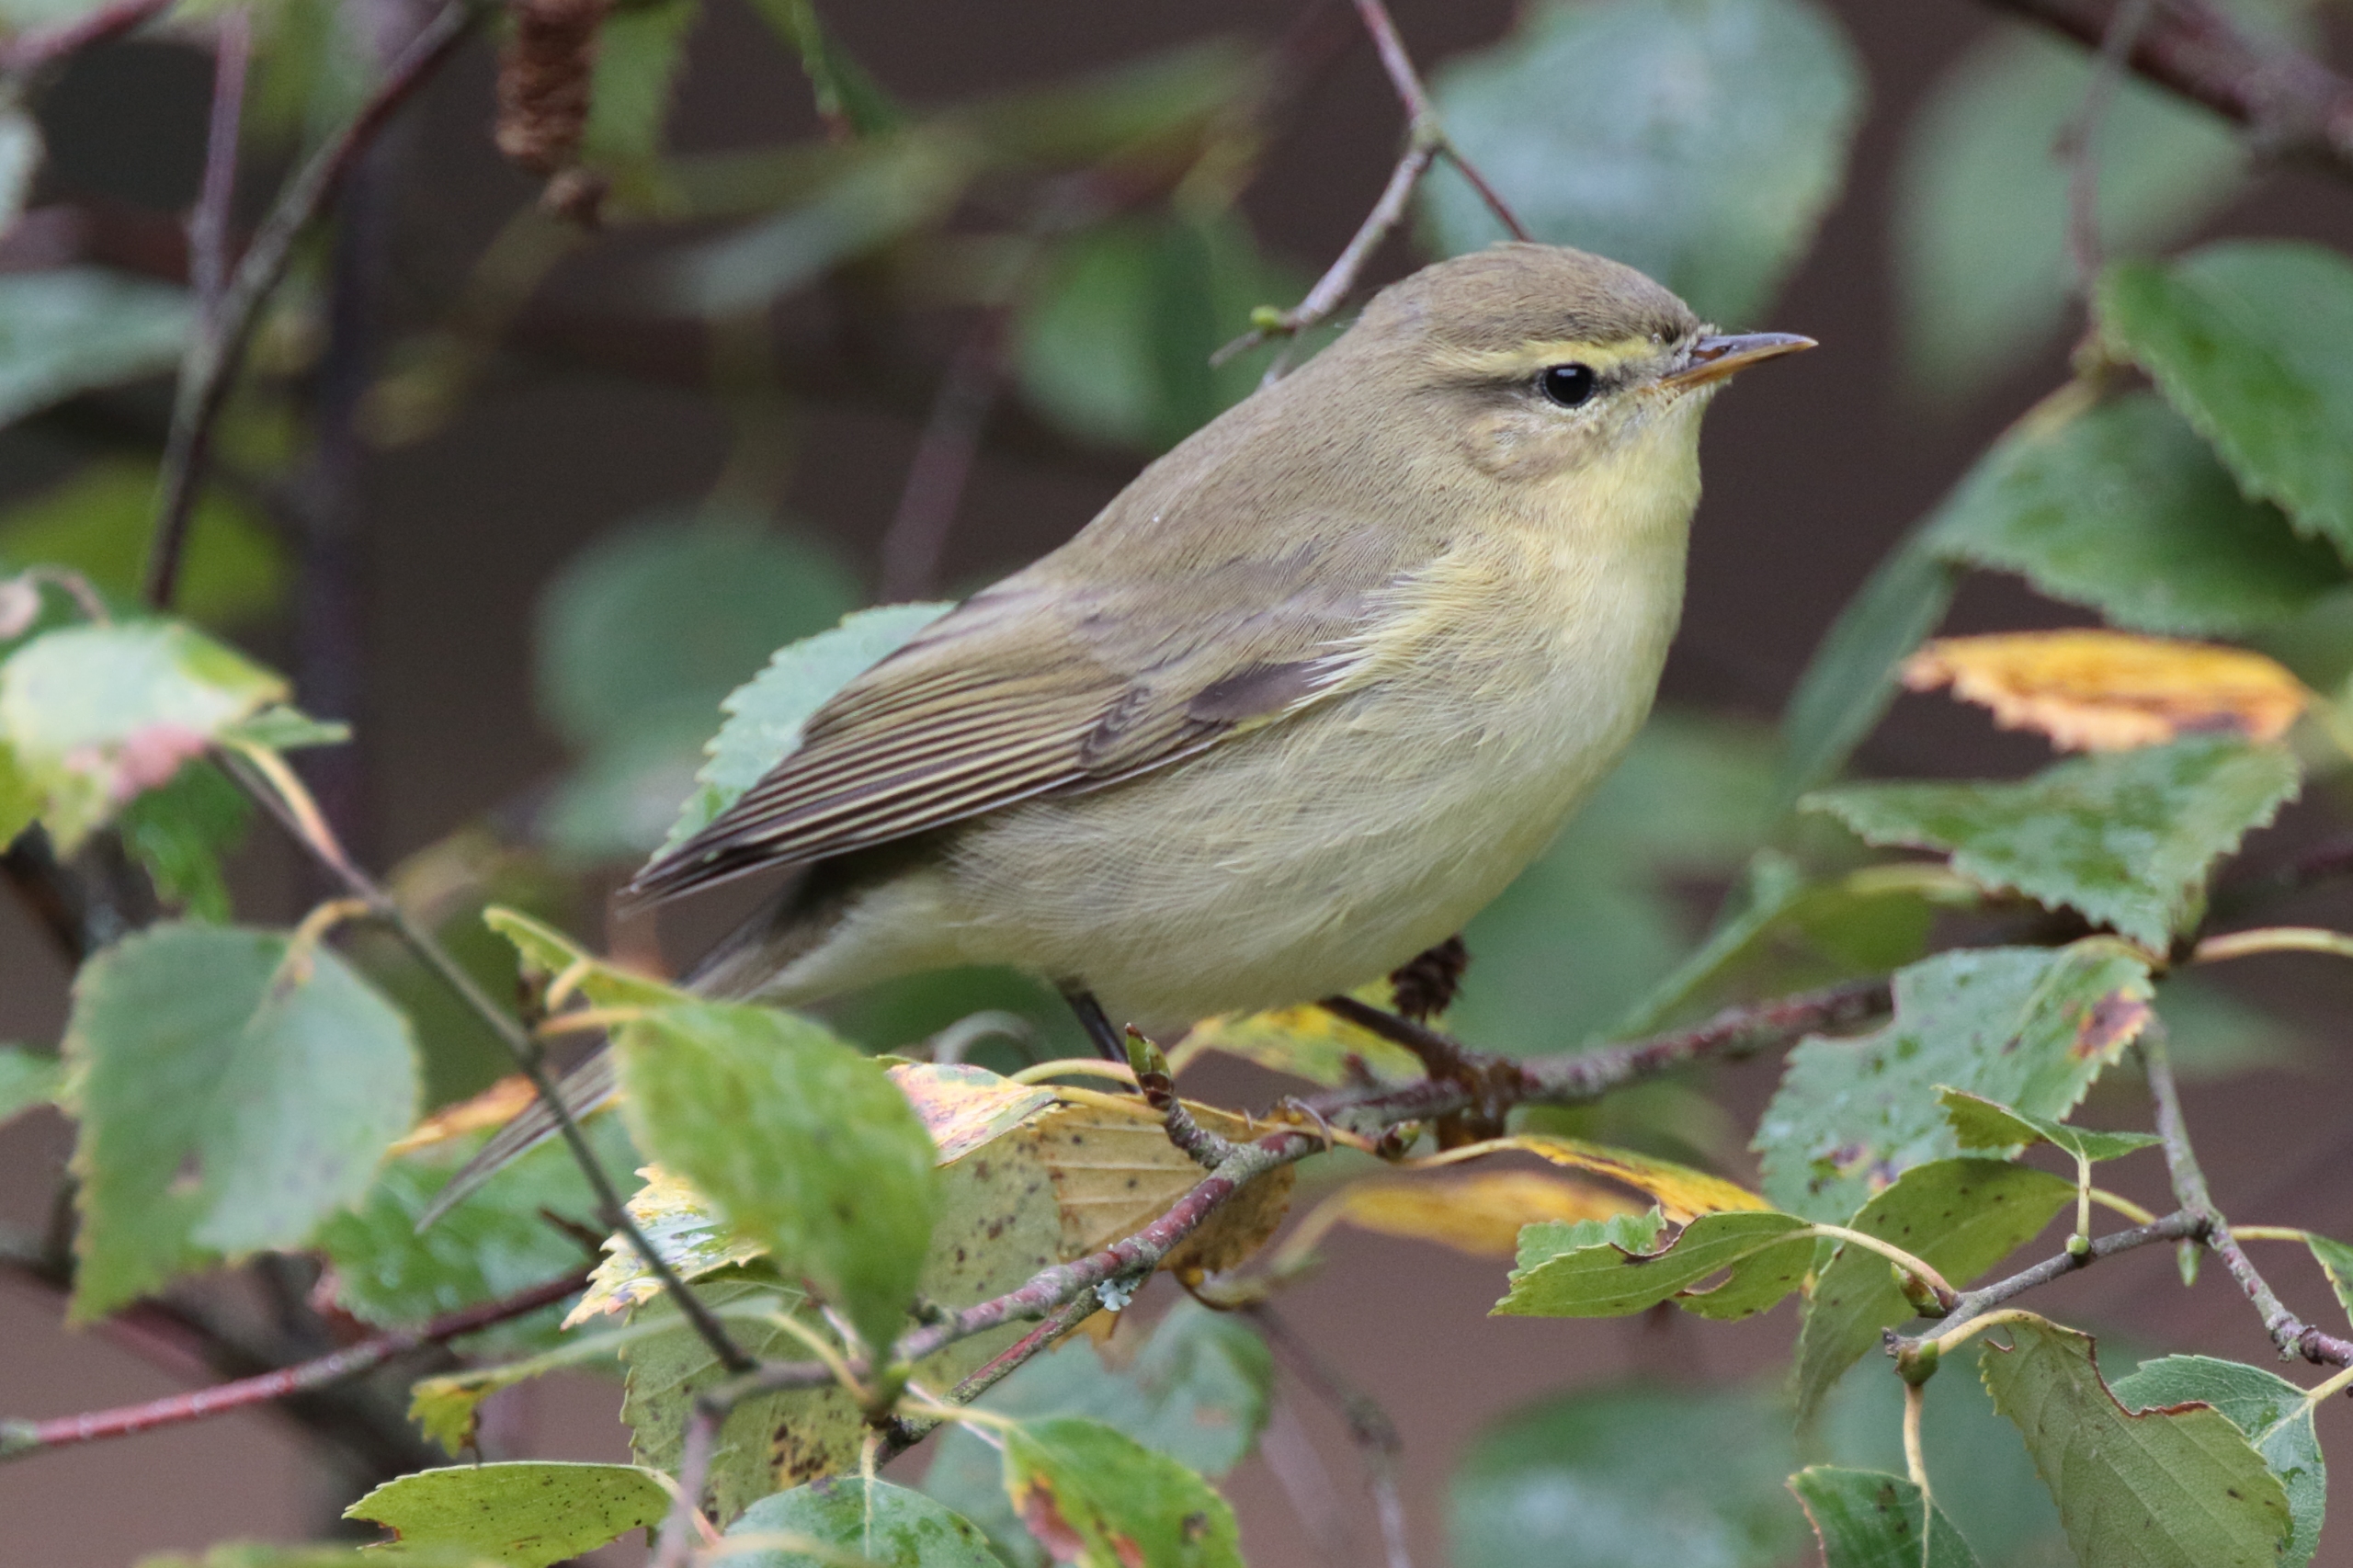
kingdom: Animalia
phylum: Chordata
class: Aves
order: Passeriformes
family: Phylloscopidae
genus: Phylloscopus
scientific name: Phylloscopus collybita
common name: Gransanger
